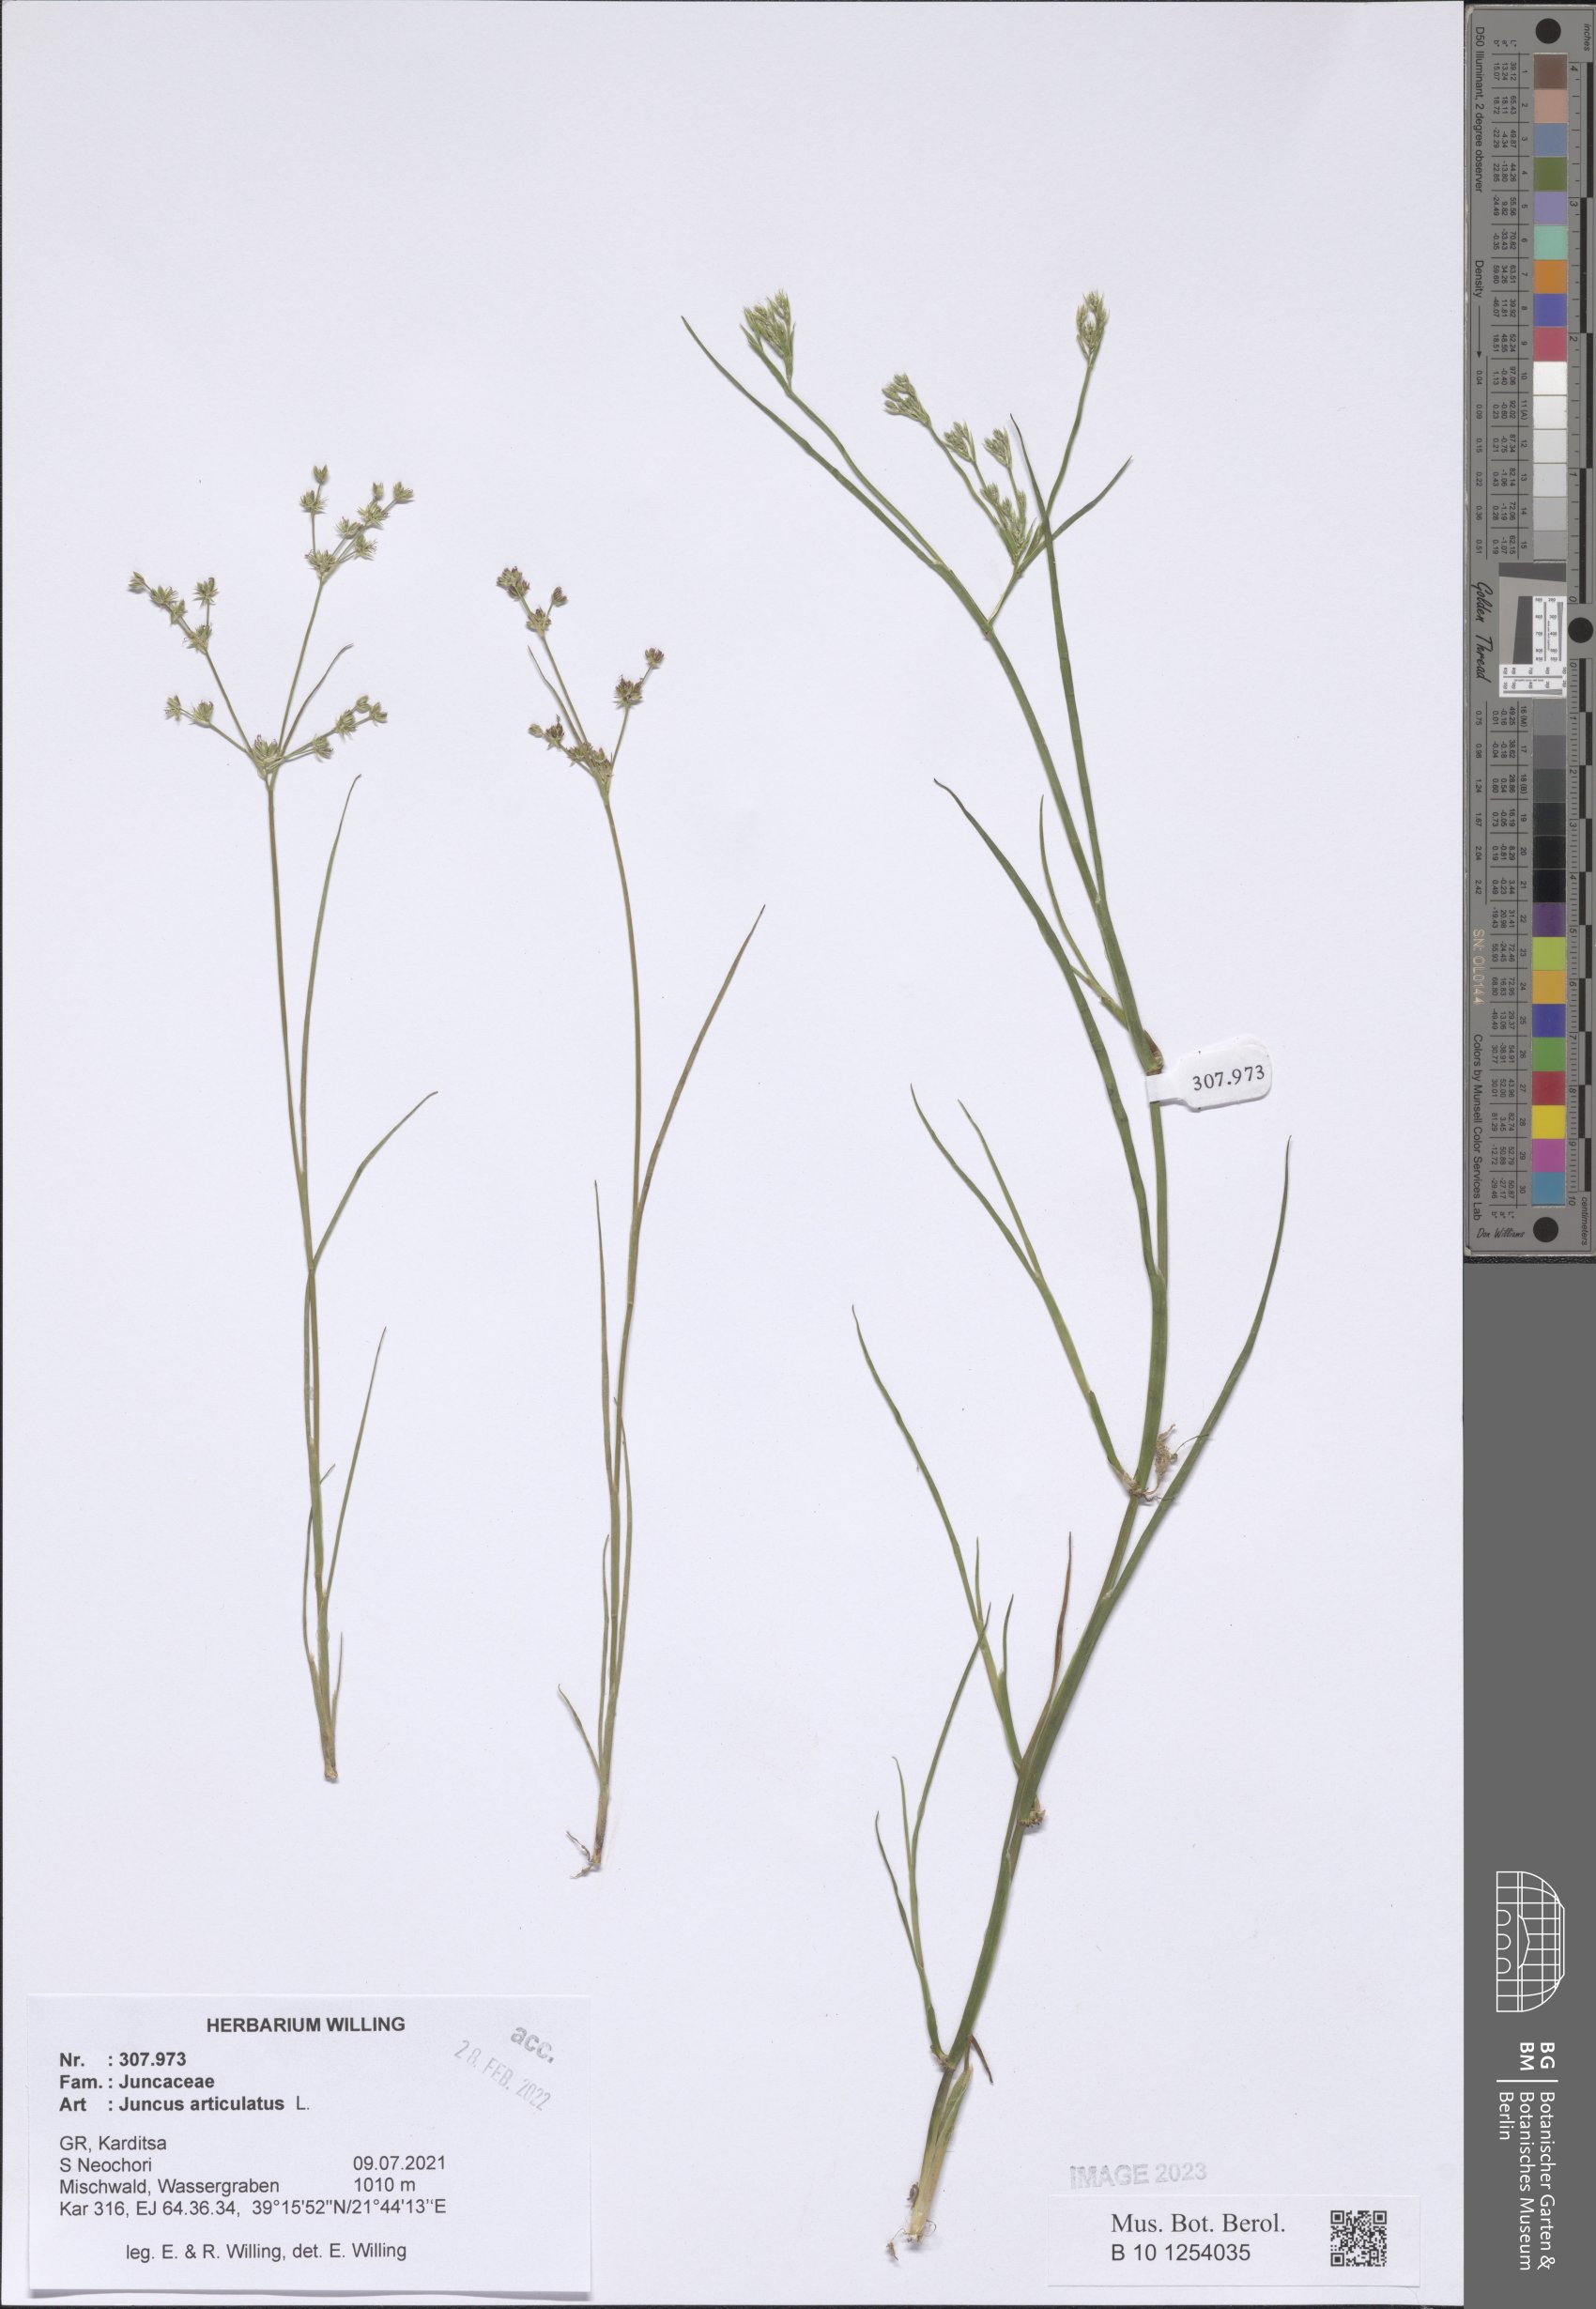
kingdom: Plantae
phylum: Tracheophyta
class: Liliopsida
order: Poales
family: Juncaceae
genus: Juncus
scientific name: Juncus articulatus
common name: Jointed rush
